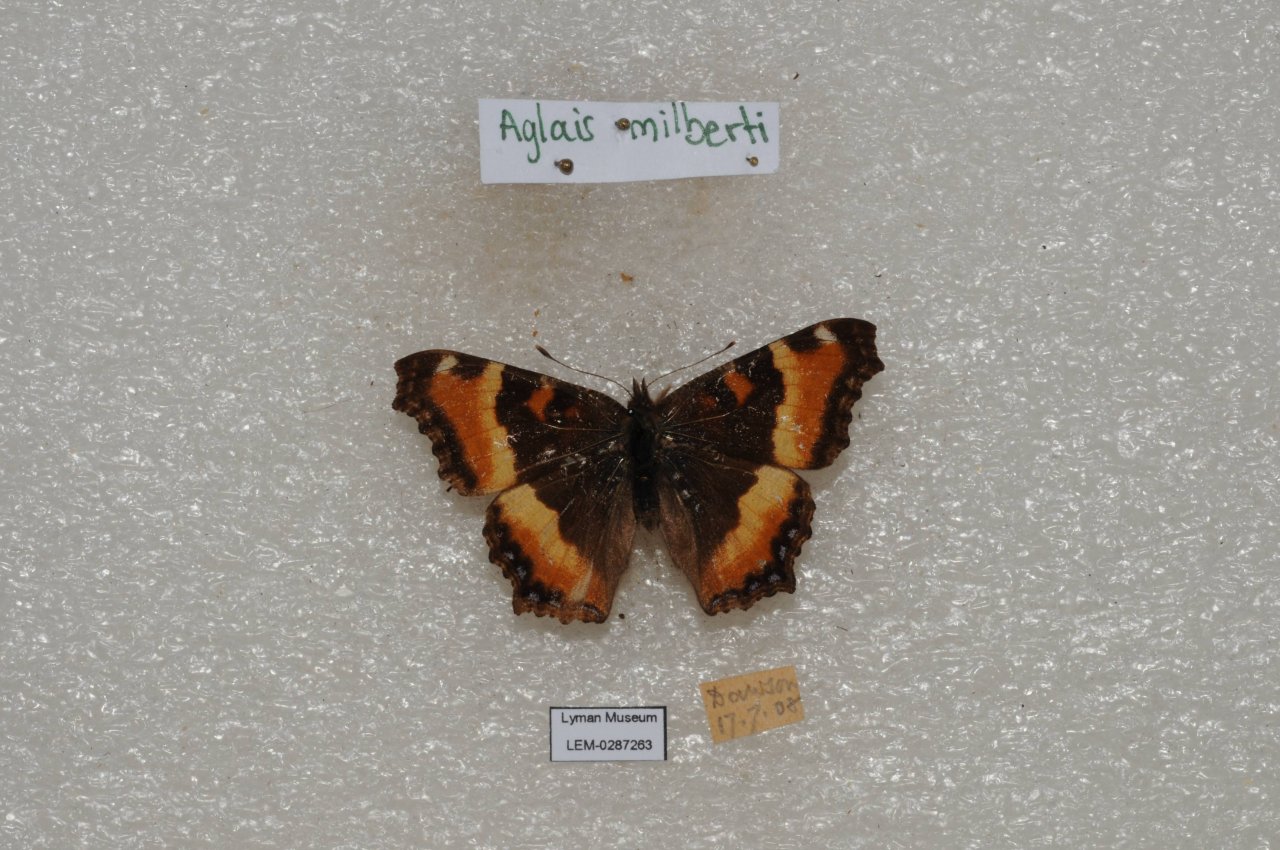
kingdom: Animalia
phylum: Arthropoda
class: Insecta
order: Lepidoptera
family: Nymphalidae
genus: Aglais
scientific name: Aglais milberti
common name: Milbert's Tortoiseshell
